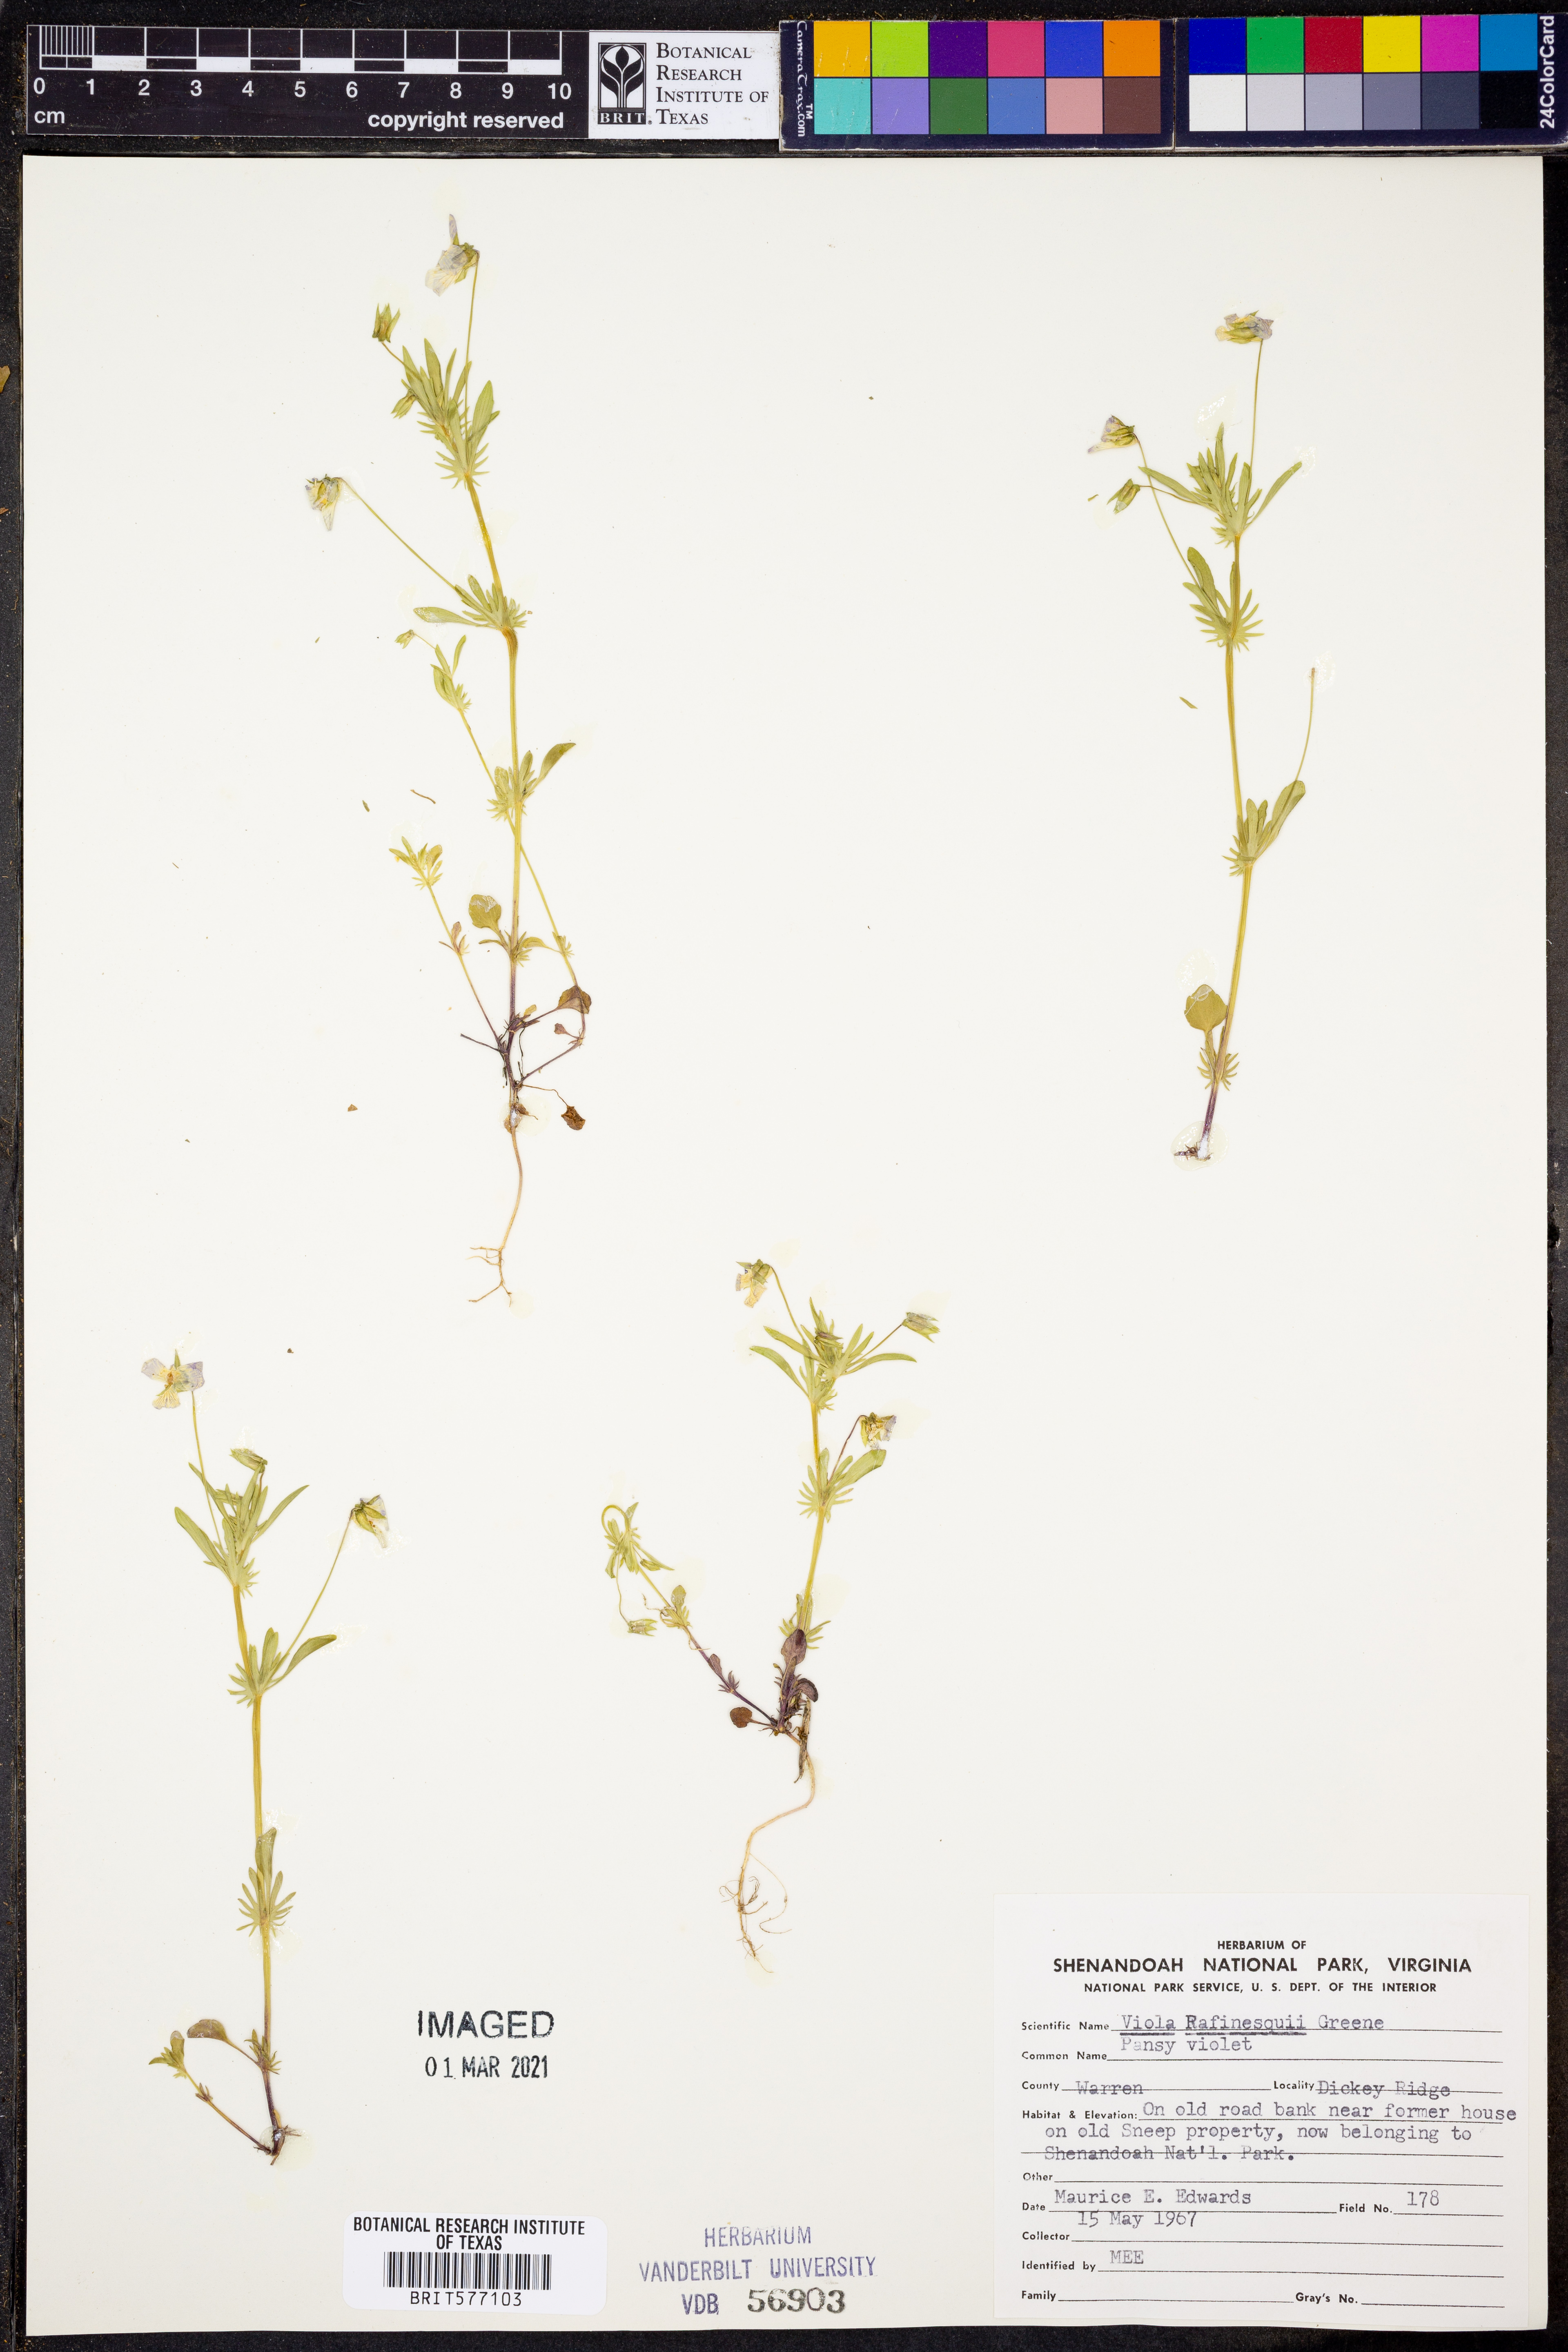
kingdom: Plantae
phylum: Tracheophyta
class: Magnoliopsida
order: Malpighiales
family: Violaceae
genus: Viola
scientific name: Viola rafinesquei
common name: American field pansy
